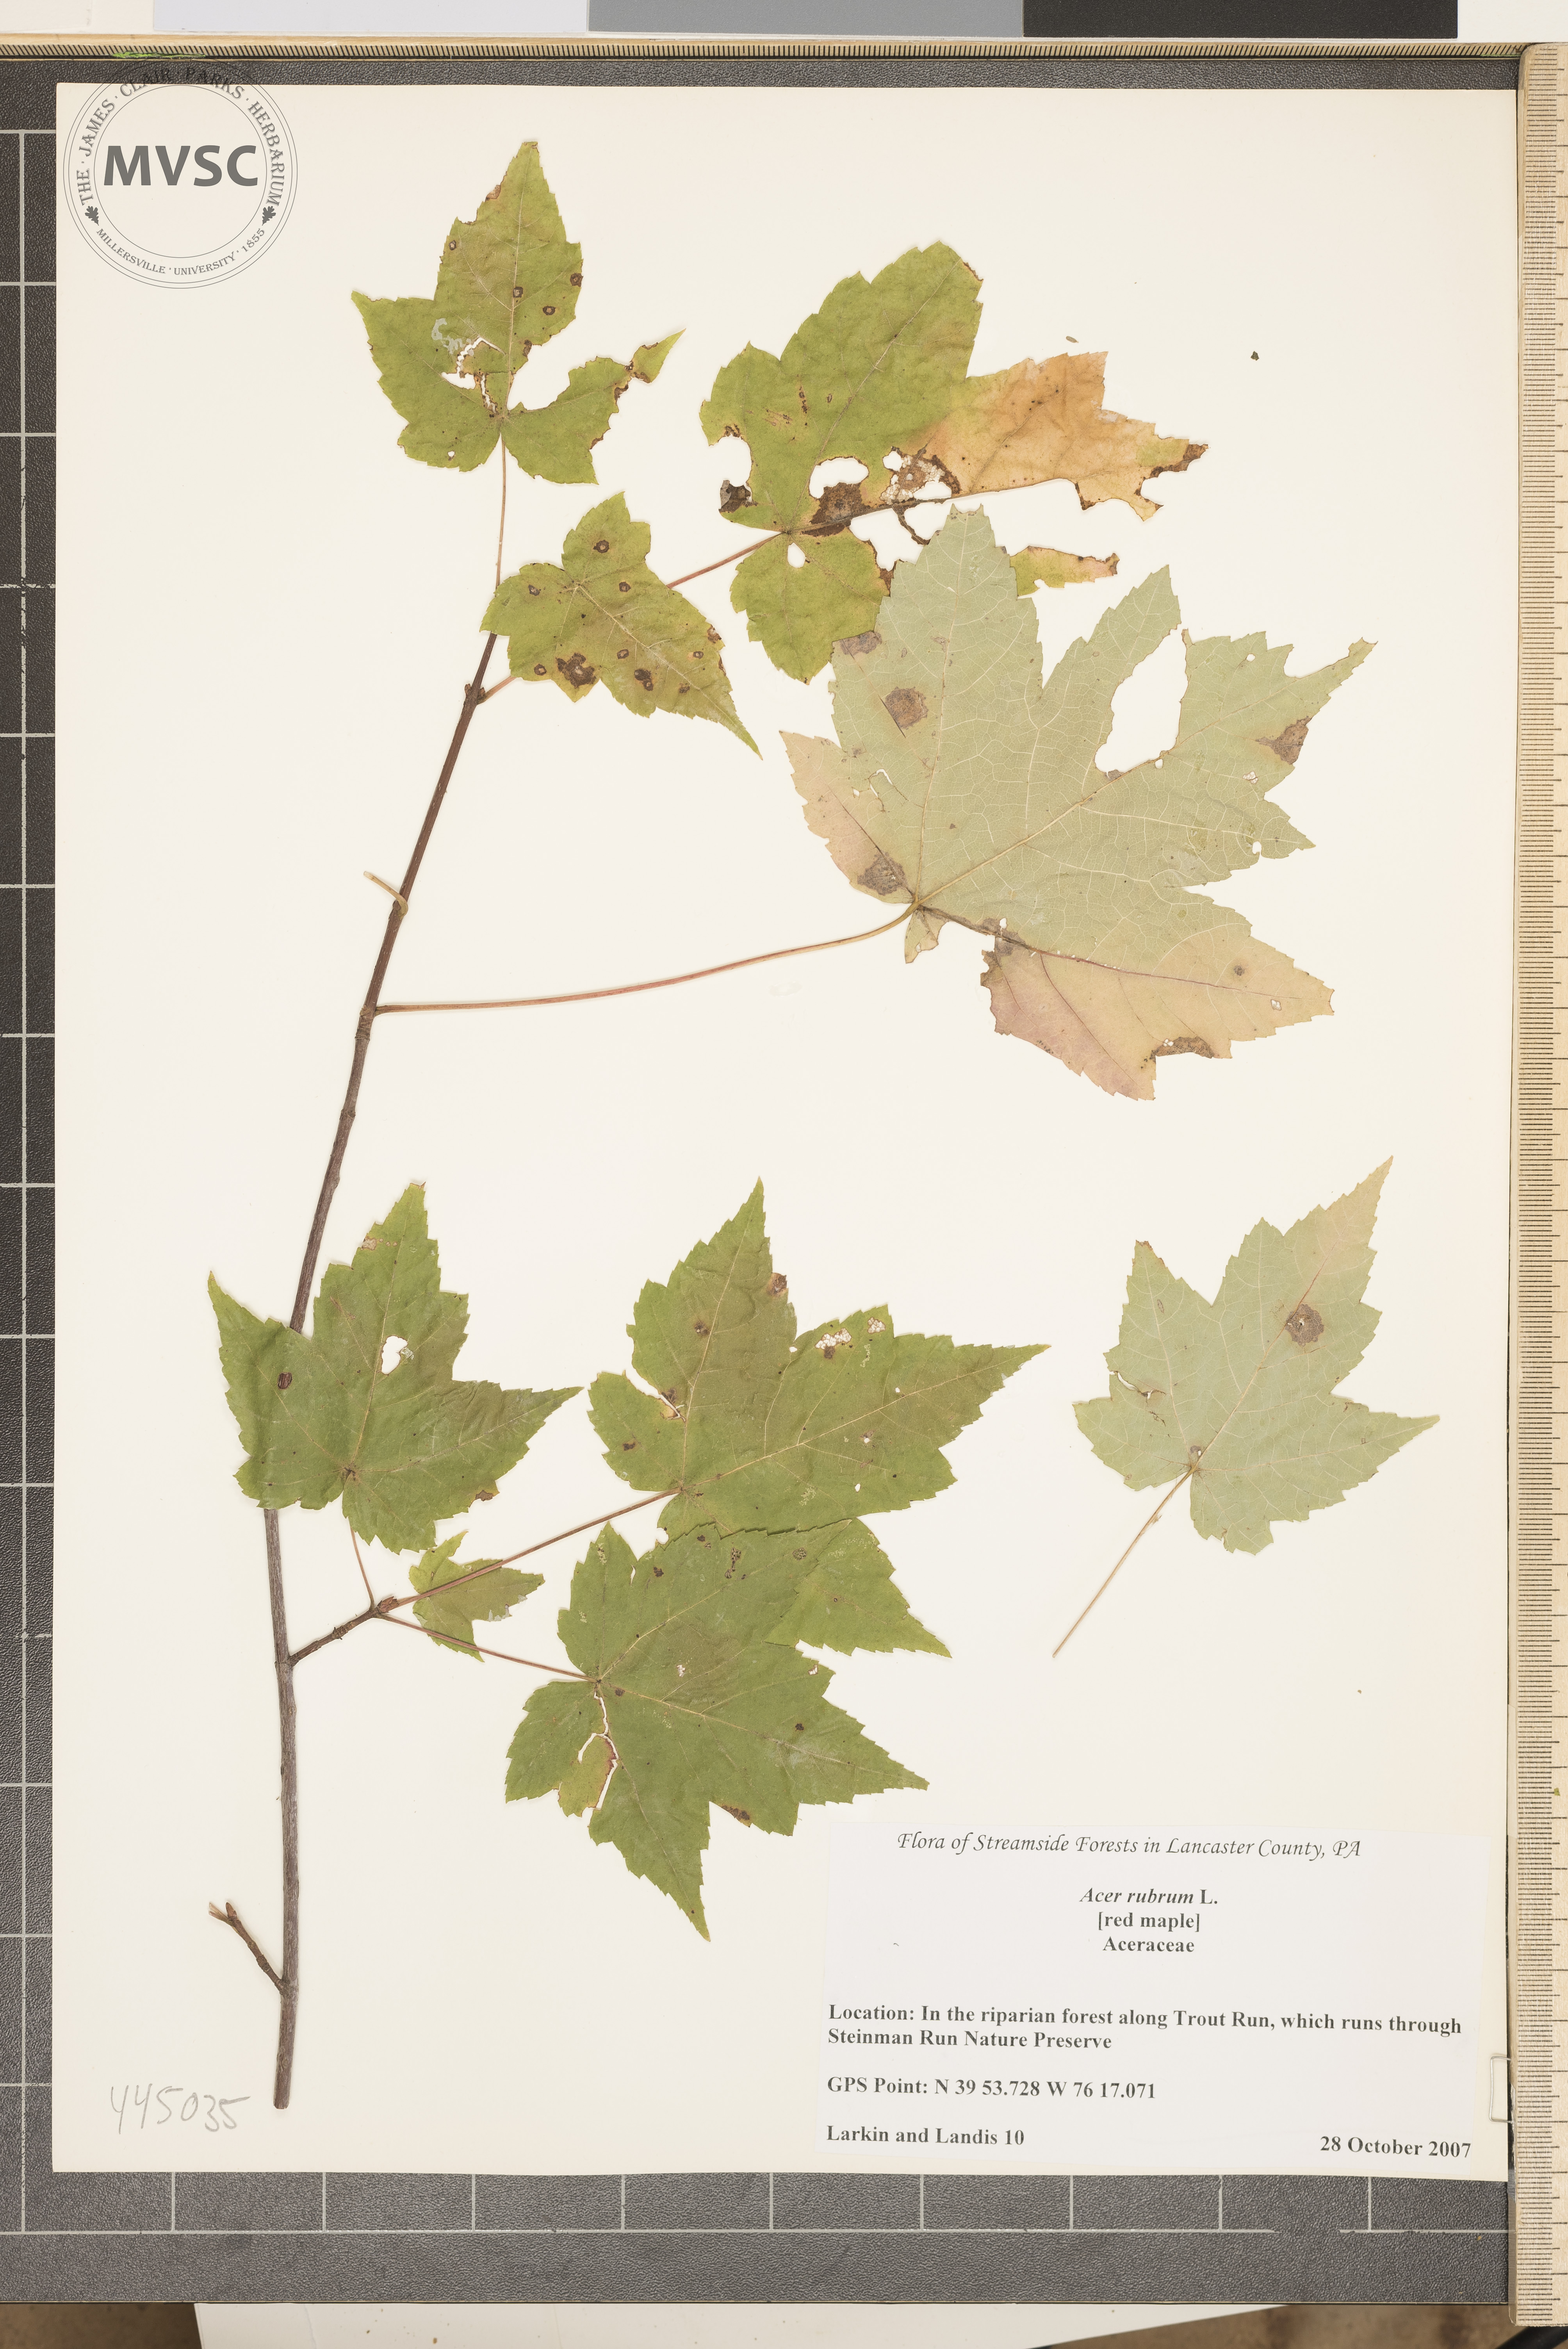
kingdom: Plantae
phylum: Tracheophyta
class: Magnoliopsida
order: Sapindales
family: Sapindaceae
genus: Acer
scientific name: Acer rubrum
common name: Red Maple
